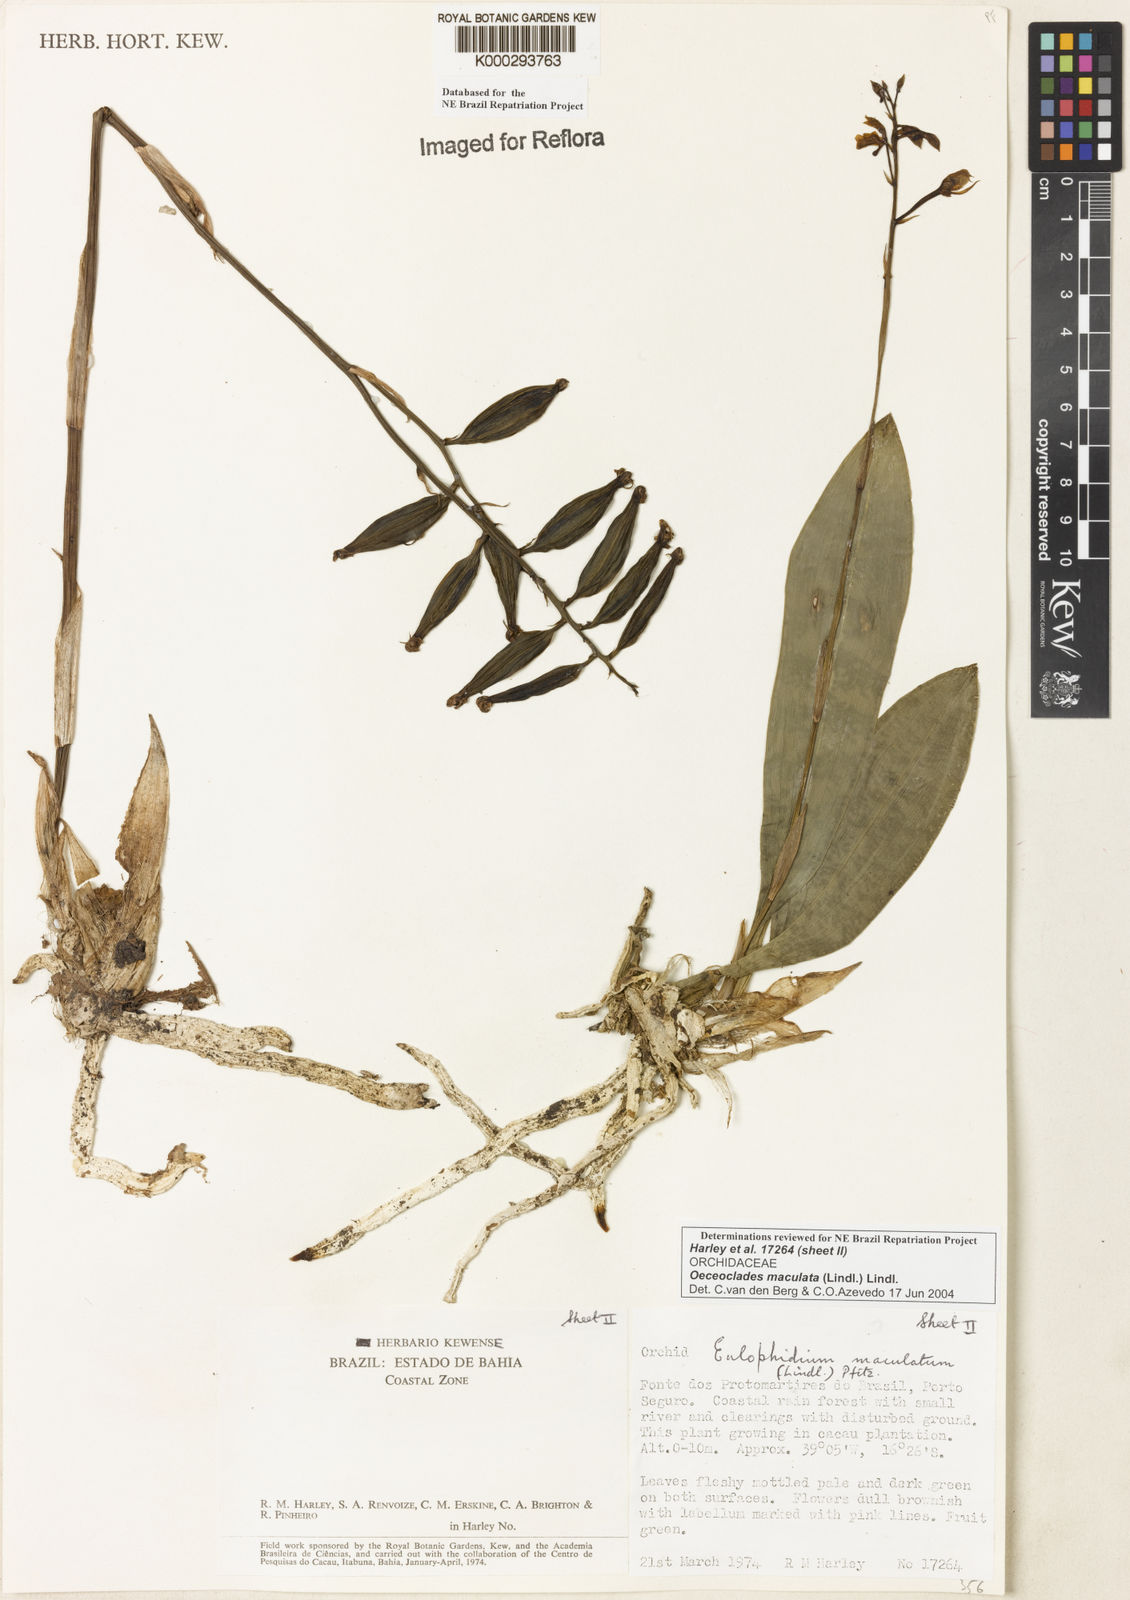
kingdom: Plantae
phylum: Tracheophyta
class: Liliopsida
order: Asparagales
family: Orchidaceae
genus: Eulophia
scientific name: Eulophia maculata
